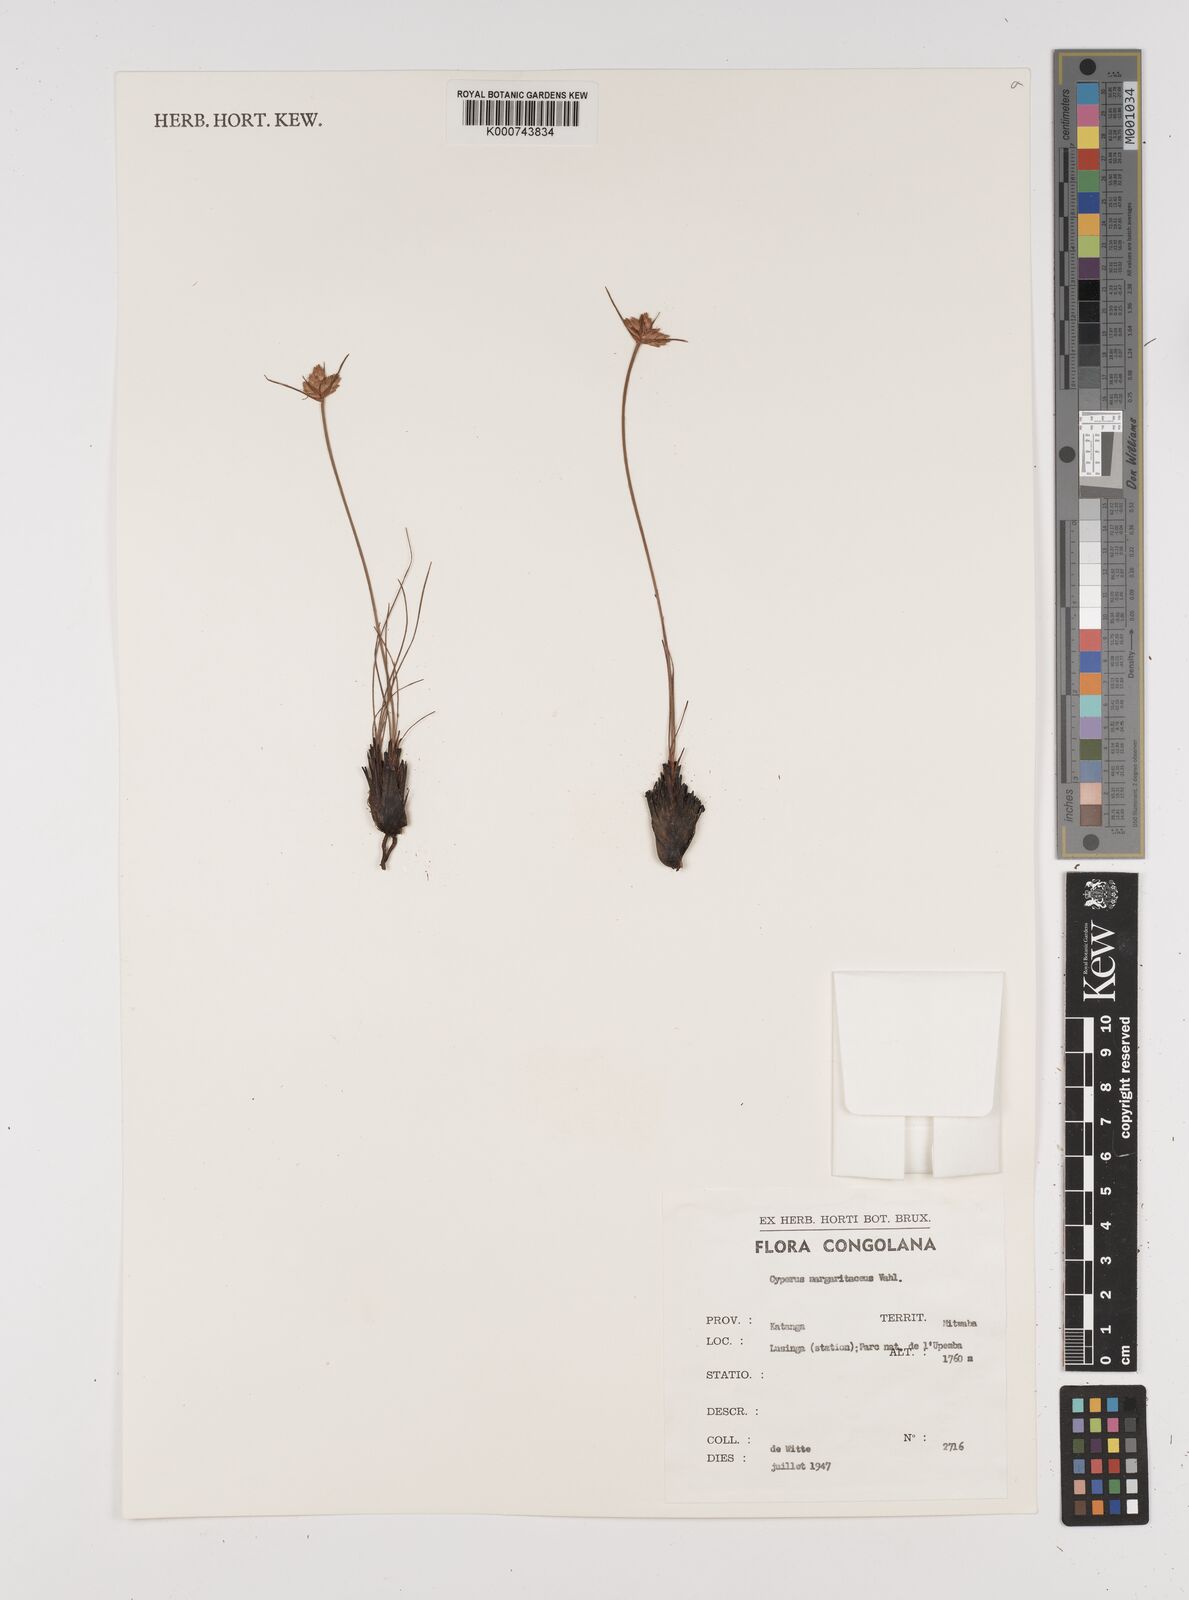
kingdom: Plantae
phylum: Tracheophyta
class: Liliopsida
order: Poales
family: Cyperaceae
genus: Cyperus
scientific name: Cyperus margaritaceus
